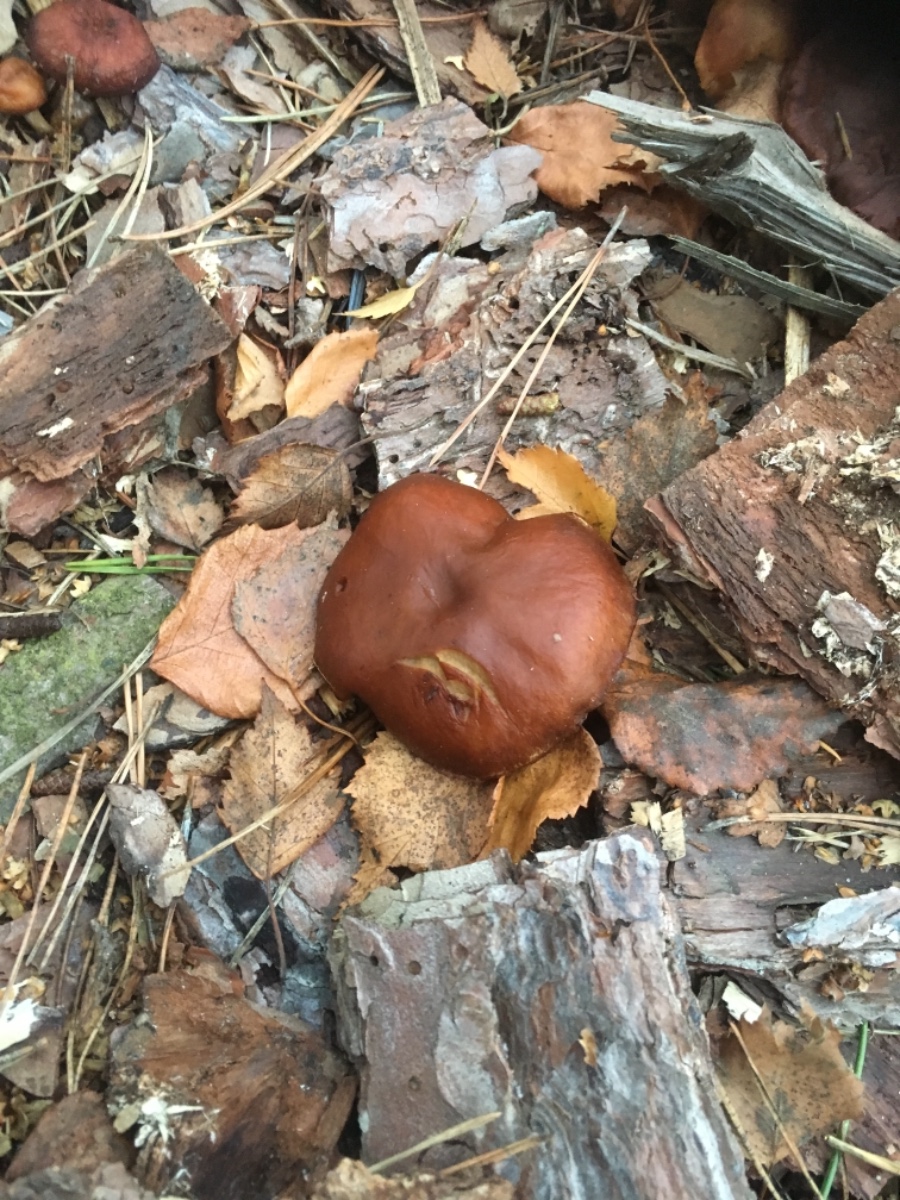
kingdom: Fungi
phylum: Basidiomycota
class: Agaricomycetes
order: Agaricales
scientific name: Agaricales
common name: champignonordenen
